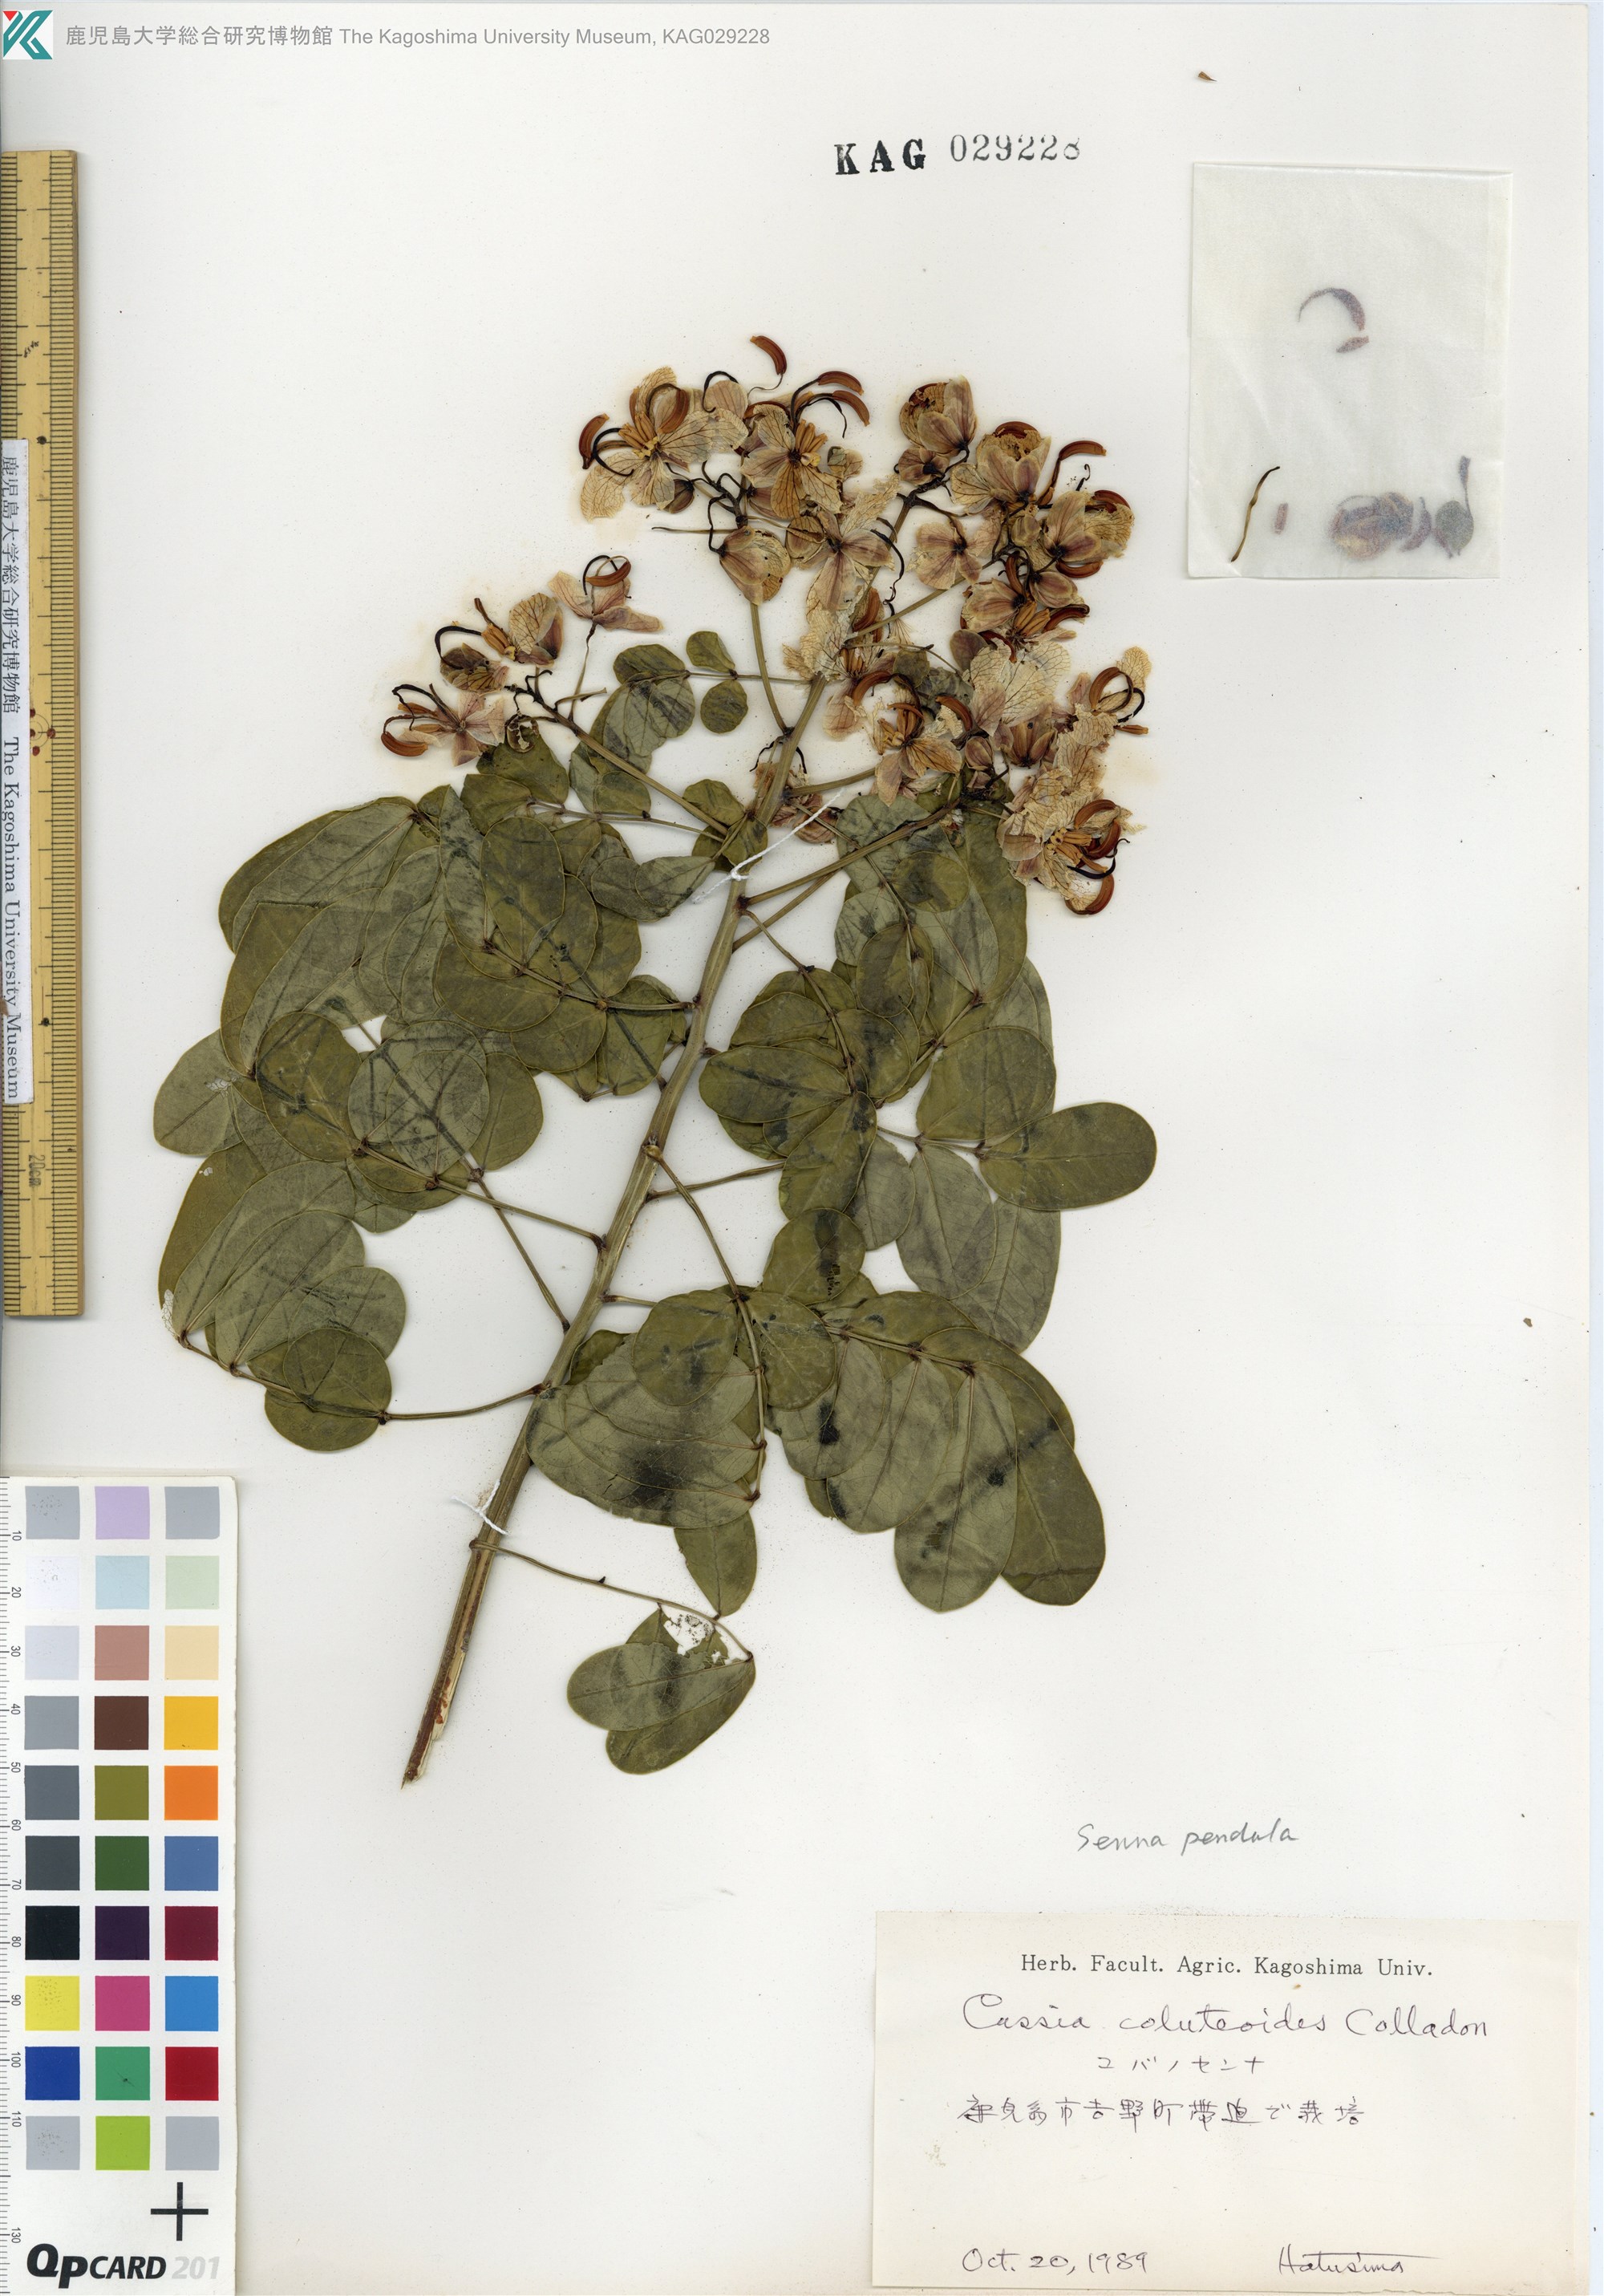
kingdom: Plantae
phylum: Tracheophyta
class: Magnoliopsida
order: Fabales
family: Fabaceae
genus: Senna
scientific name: Senna pendula
